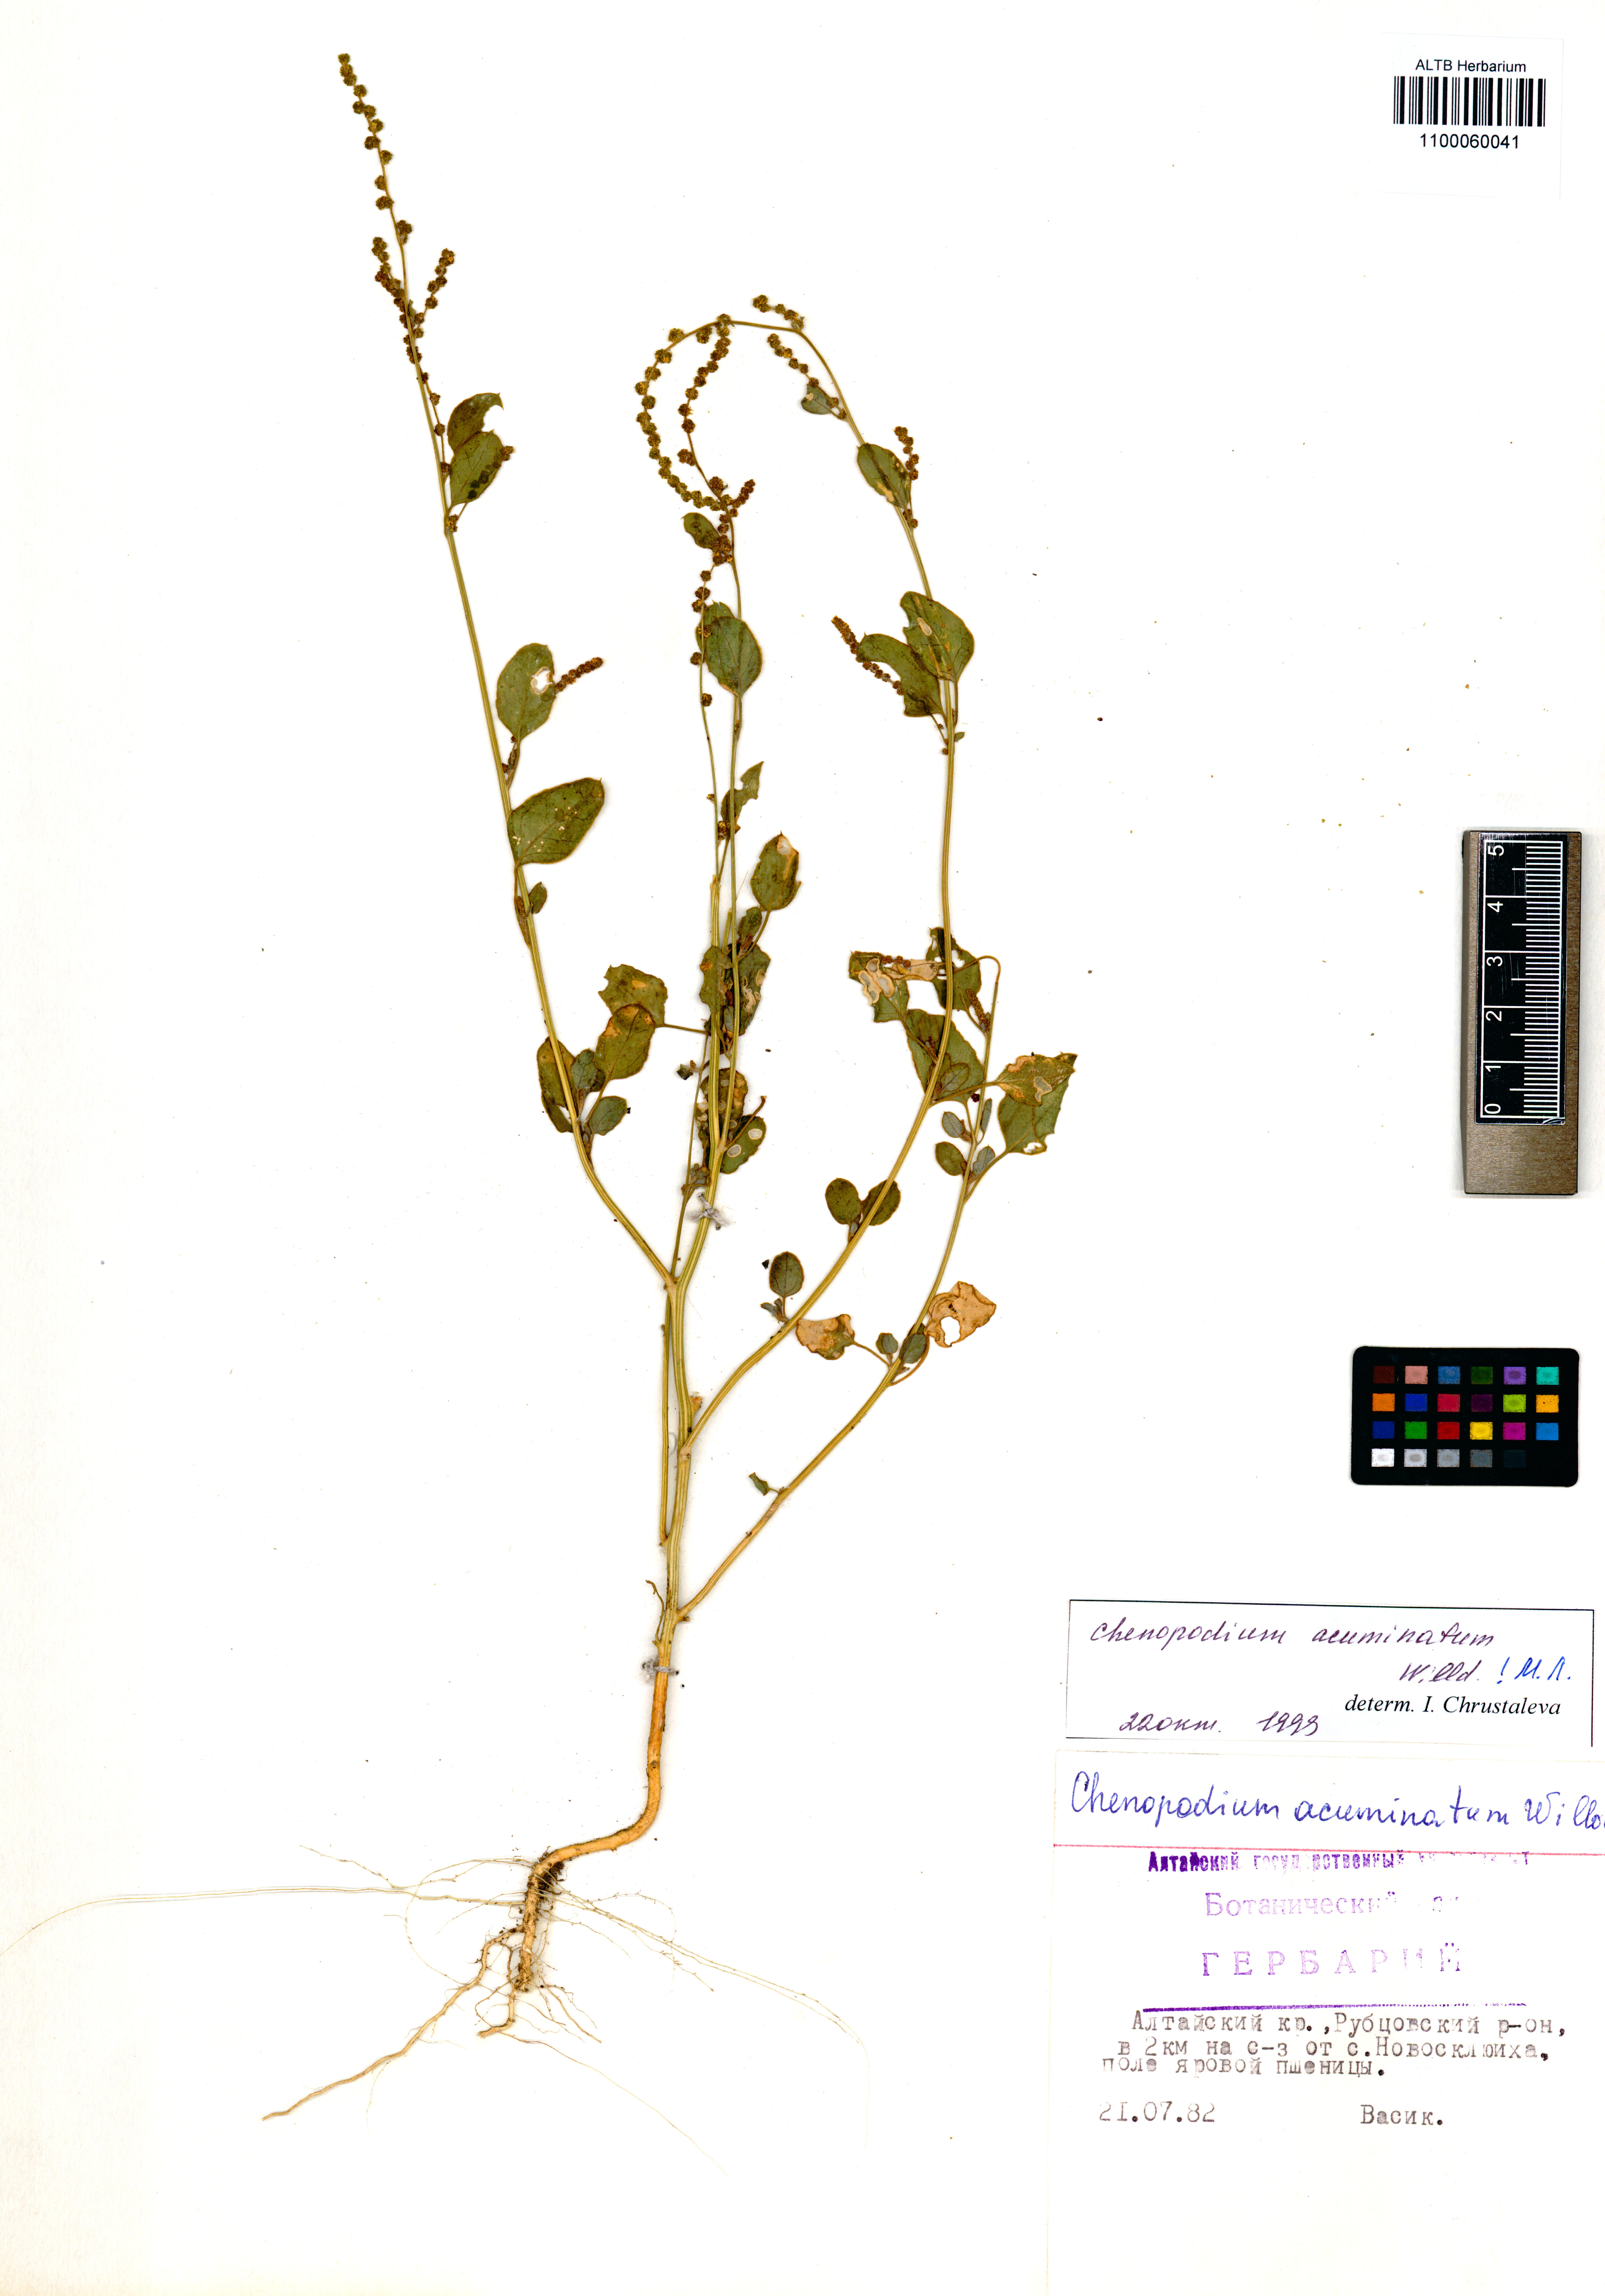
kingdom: Plantae
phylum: Tracheophyta
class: Magnoliopsida
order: Caryophyllales
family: Amaranthaceae
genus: Chenopodium
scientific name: Chenopodium acuminatum
